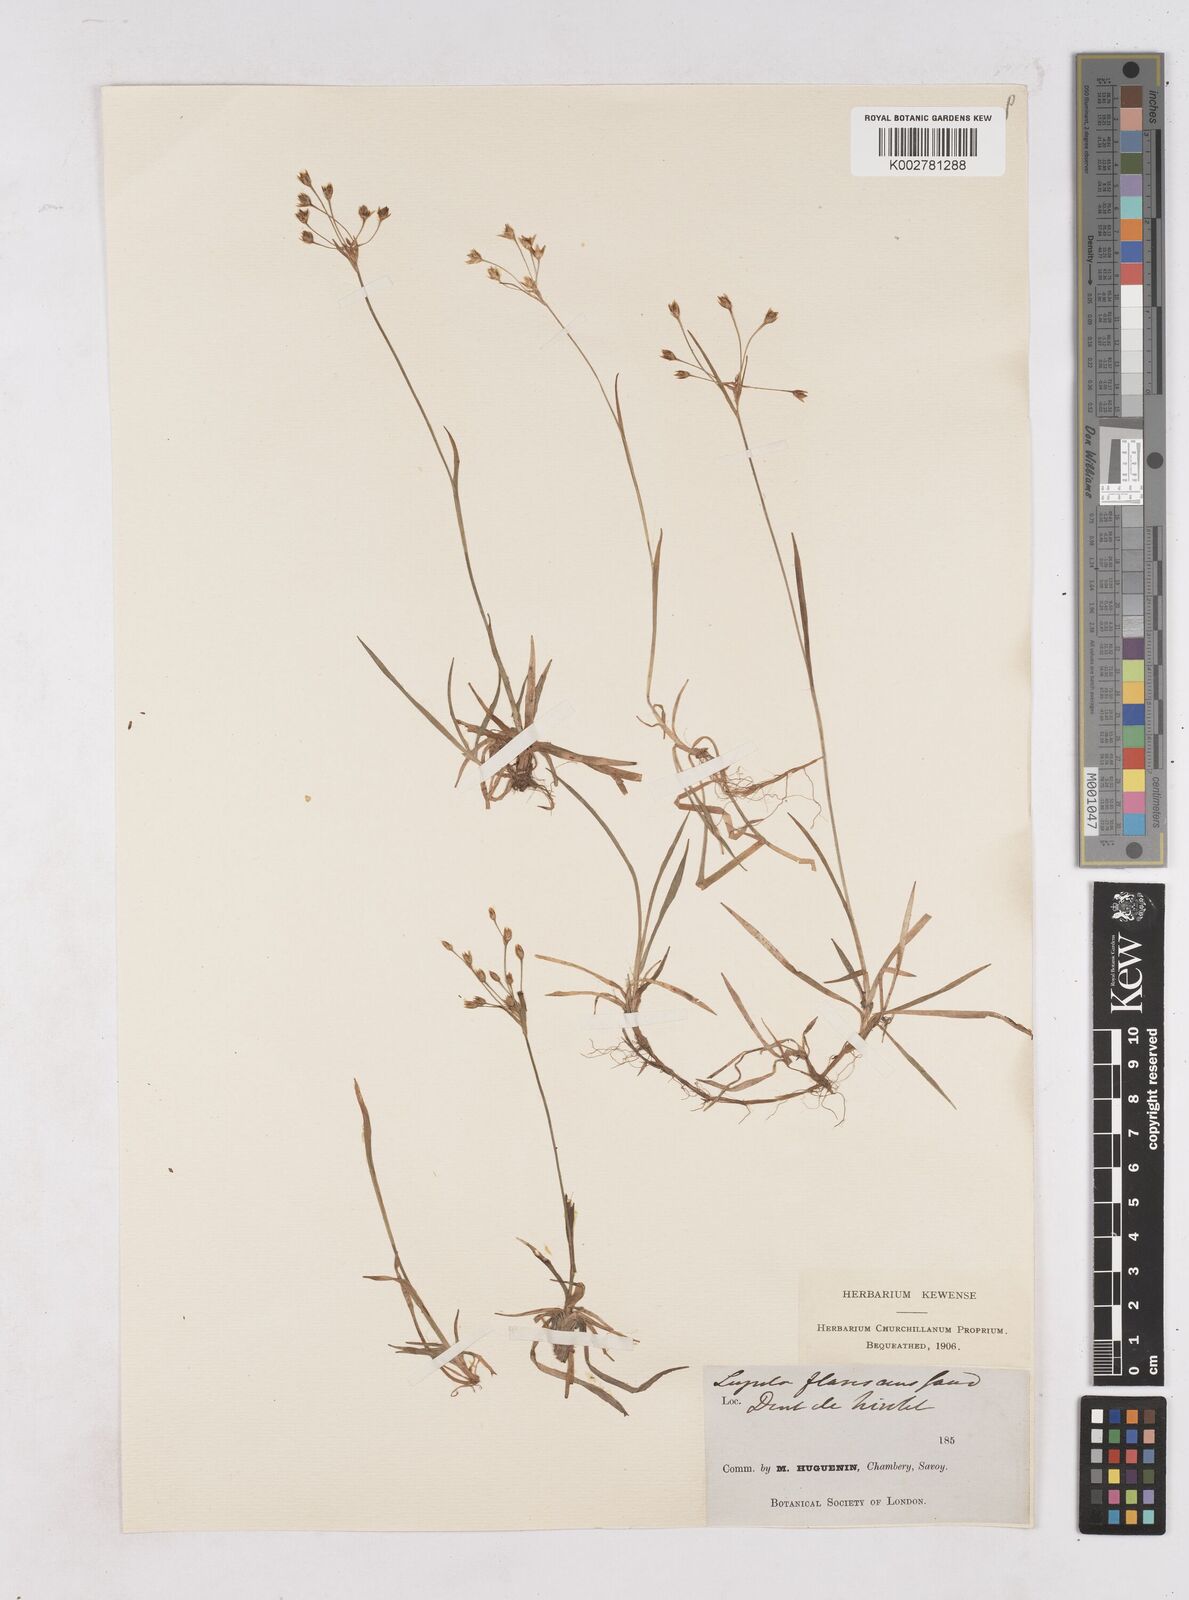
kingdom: Plantae
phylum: Tracheophyta
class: Liliopsida
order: Poales
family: Juncaceae
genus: Luzula
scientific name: Luzula luzulina
